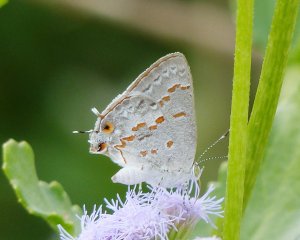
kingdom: Animalia
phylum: Arthropoda
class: Insecta
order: Lepidoptera
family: Lycaenidae
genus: Ministrymon
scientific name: Ministrymon clytie
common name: Clytie Ministreak
